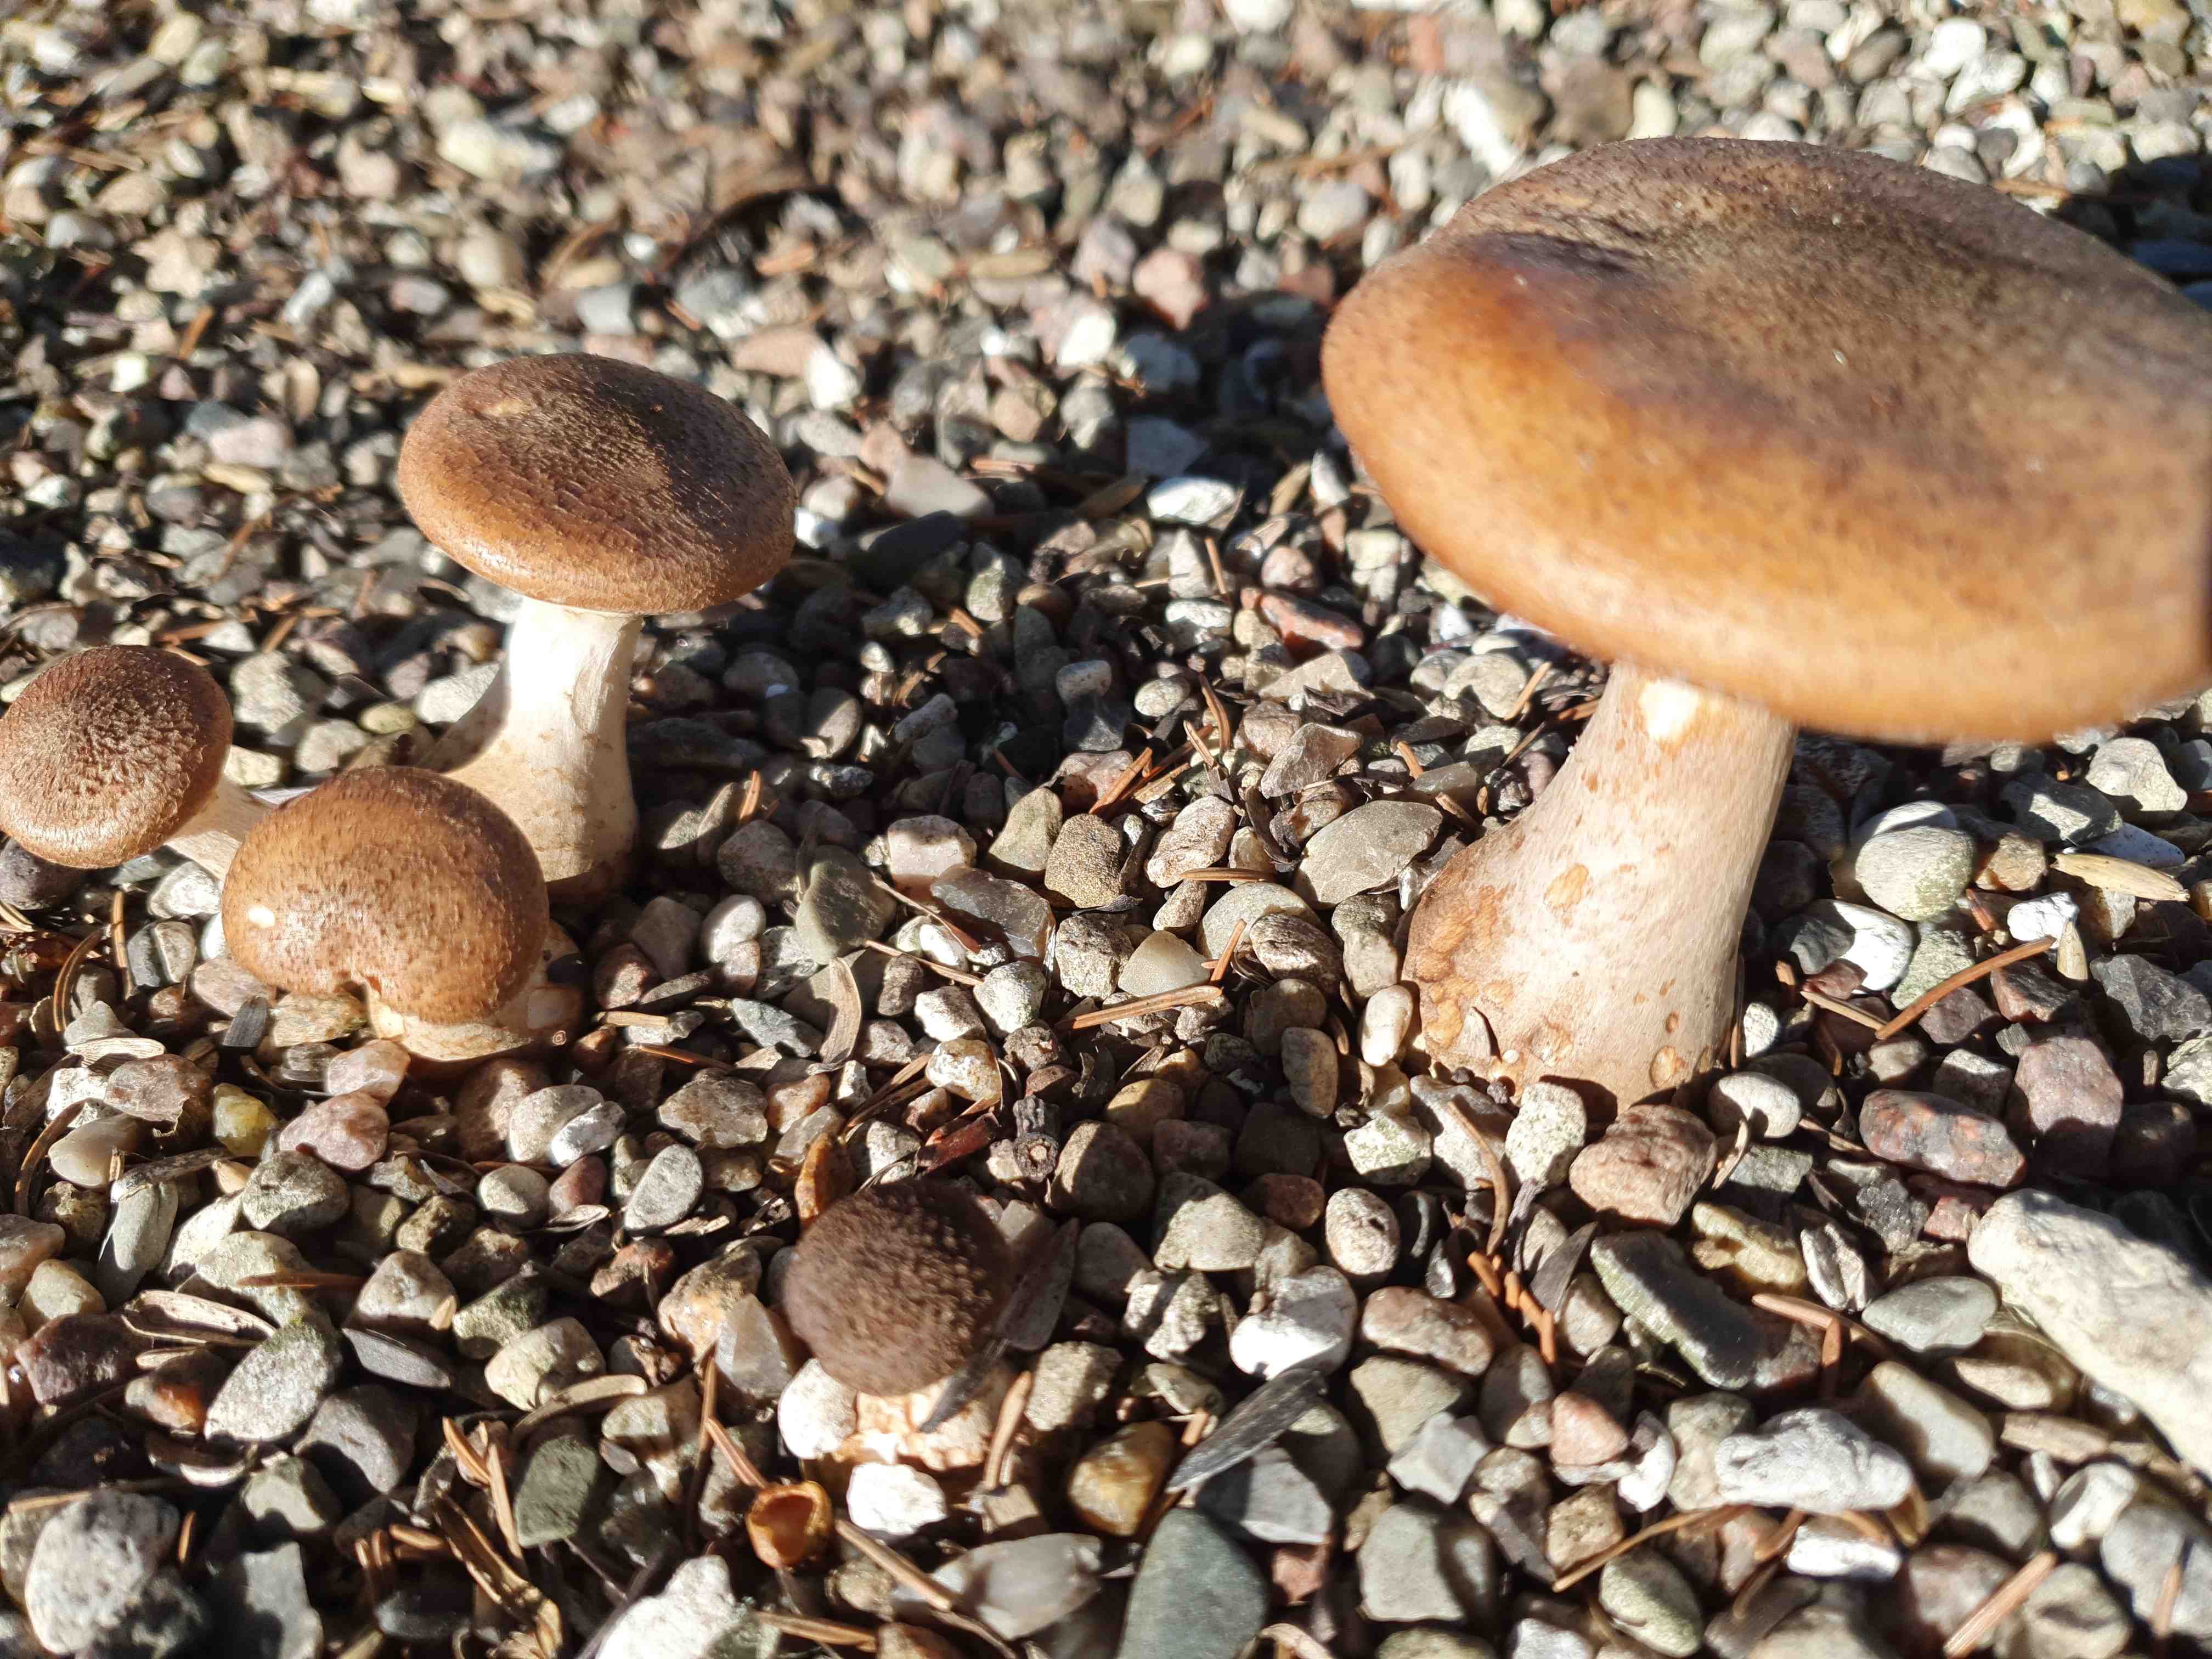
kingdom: Fungi
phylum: Basidiomycota
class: Agaricomycetes
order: Agaricales
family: Physalacriaceae
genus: Armillaria
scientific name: Armillaria lutea
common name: køllestokket honningsvamp
